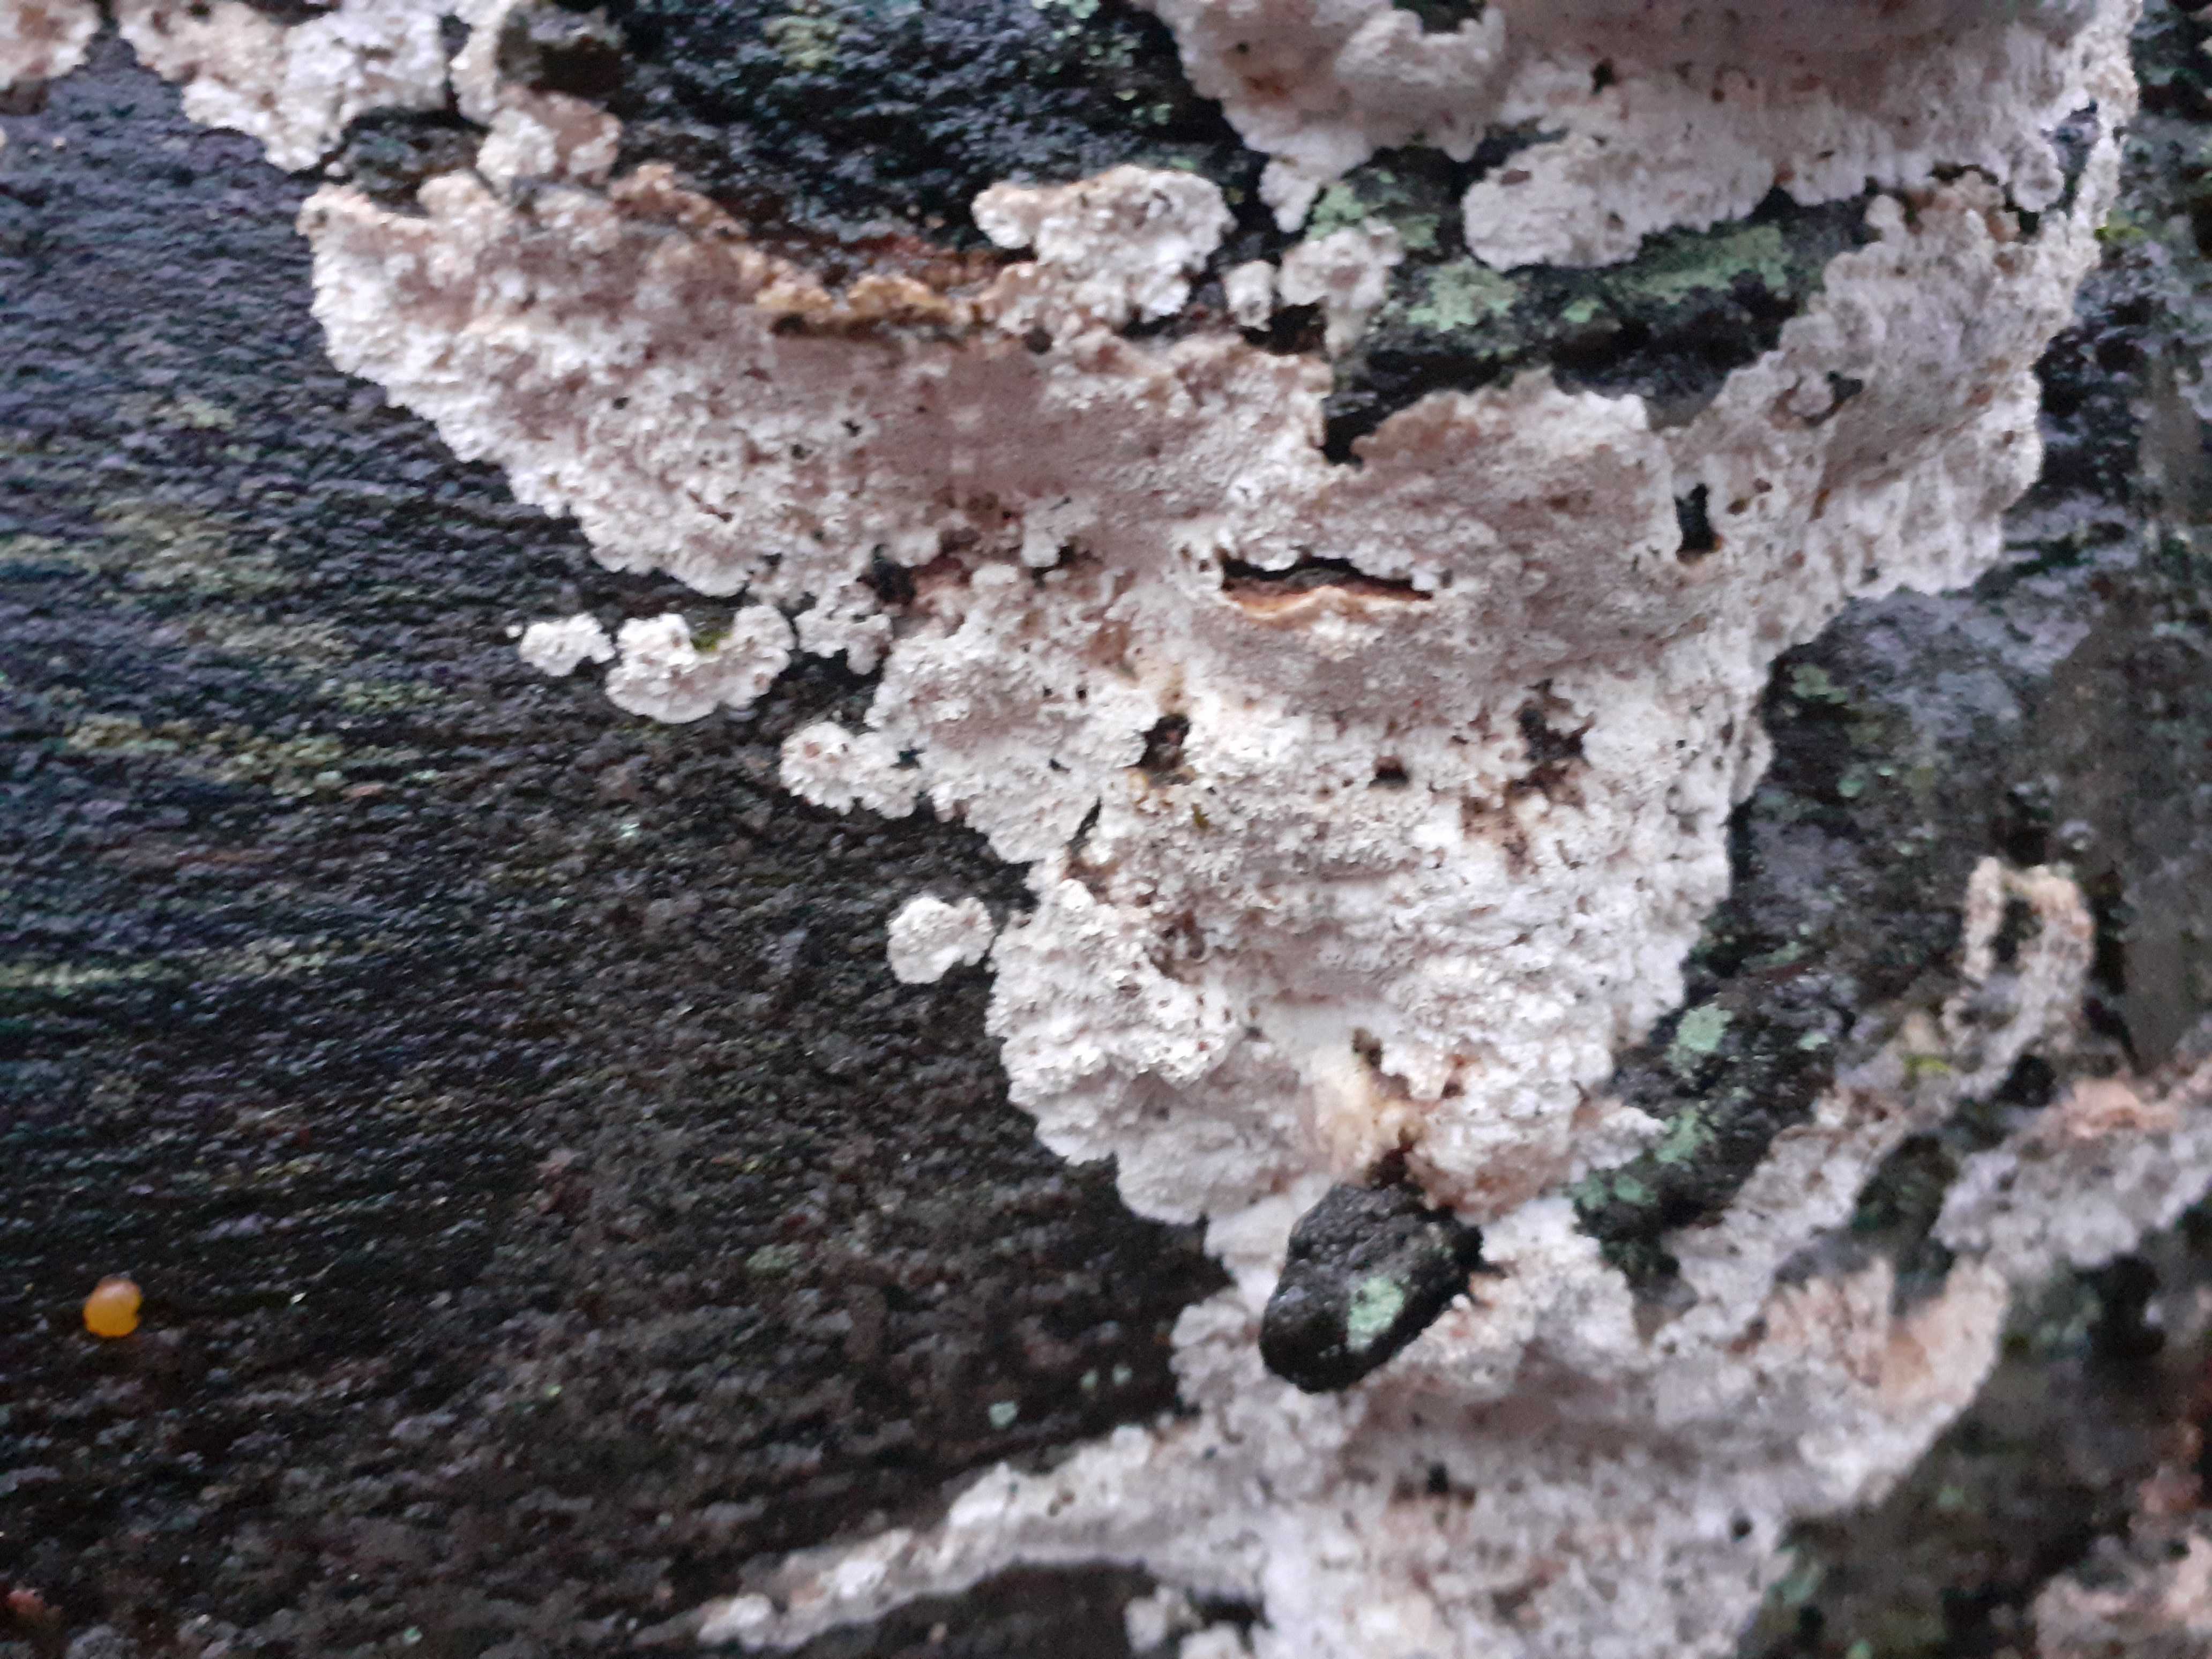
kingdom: Fungi
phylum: Basidiomycota
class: Agaricomycetes
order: Polyporales
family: Gelatoporiaceae
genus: Cinereomyces
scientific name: Cinereomyces lindbladii
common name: almindelig gråporesvamp
